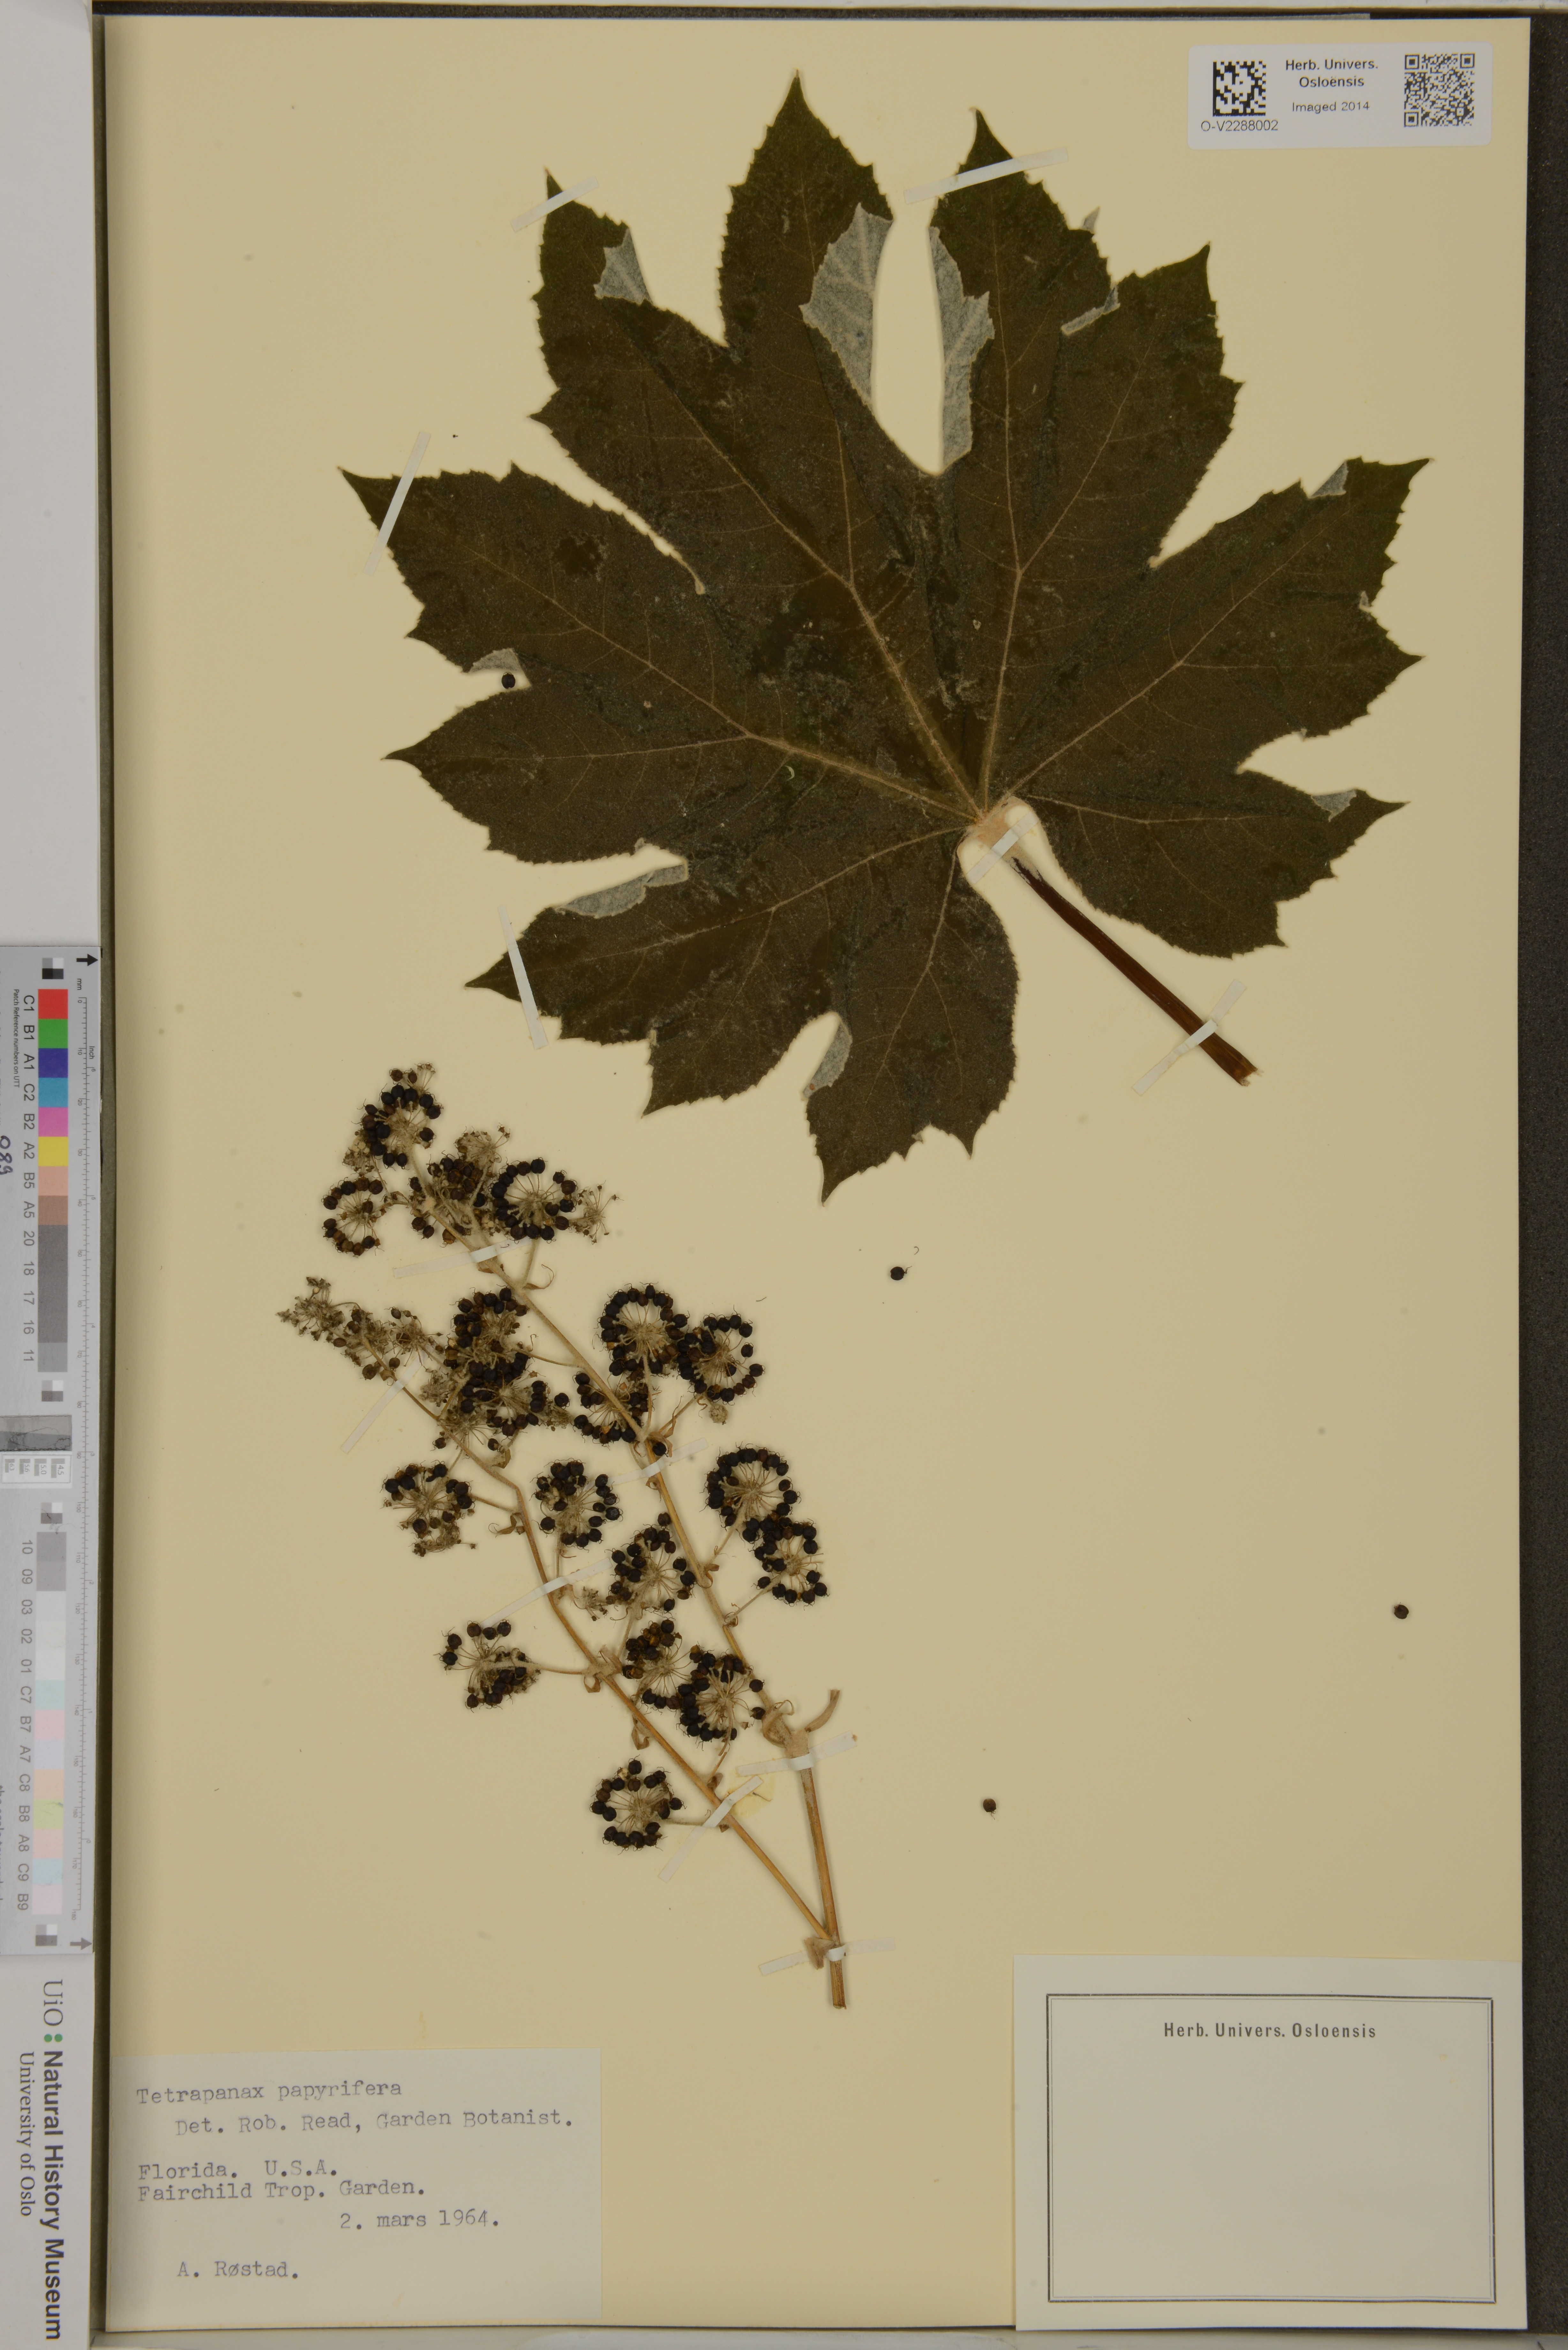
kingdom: Plantae
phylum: Tracheophyta
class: Magnoliopsida
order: Apiales
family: Araliaceae
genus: Tetrapanax
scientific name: Tetrapanax papyrifer
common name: Rice-paper plant
